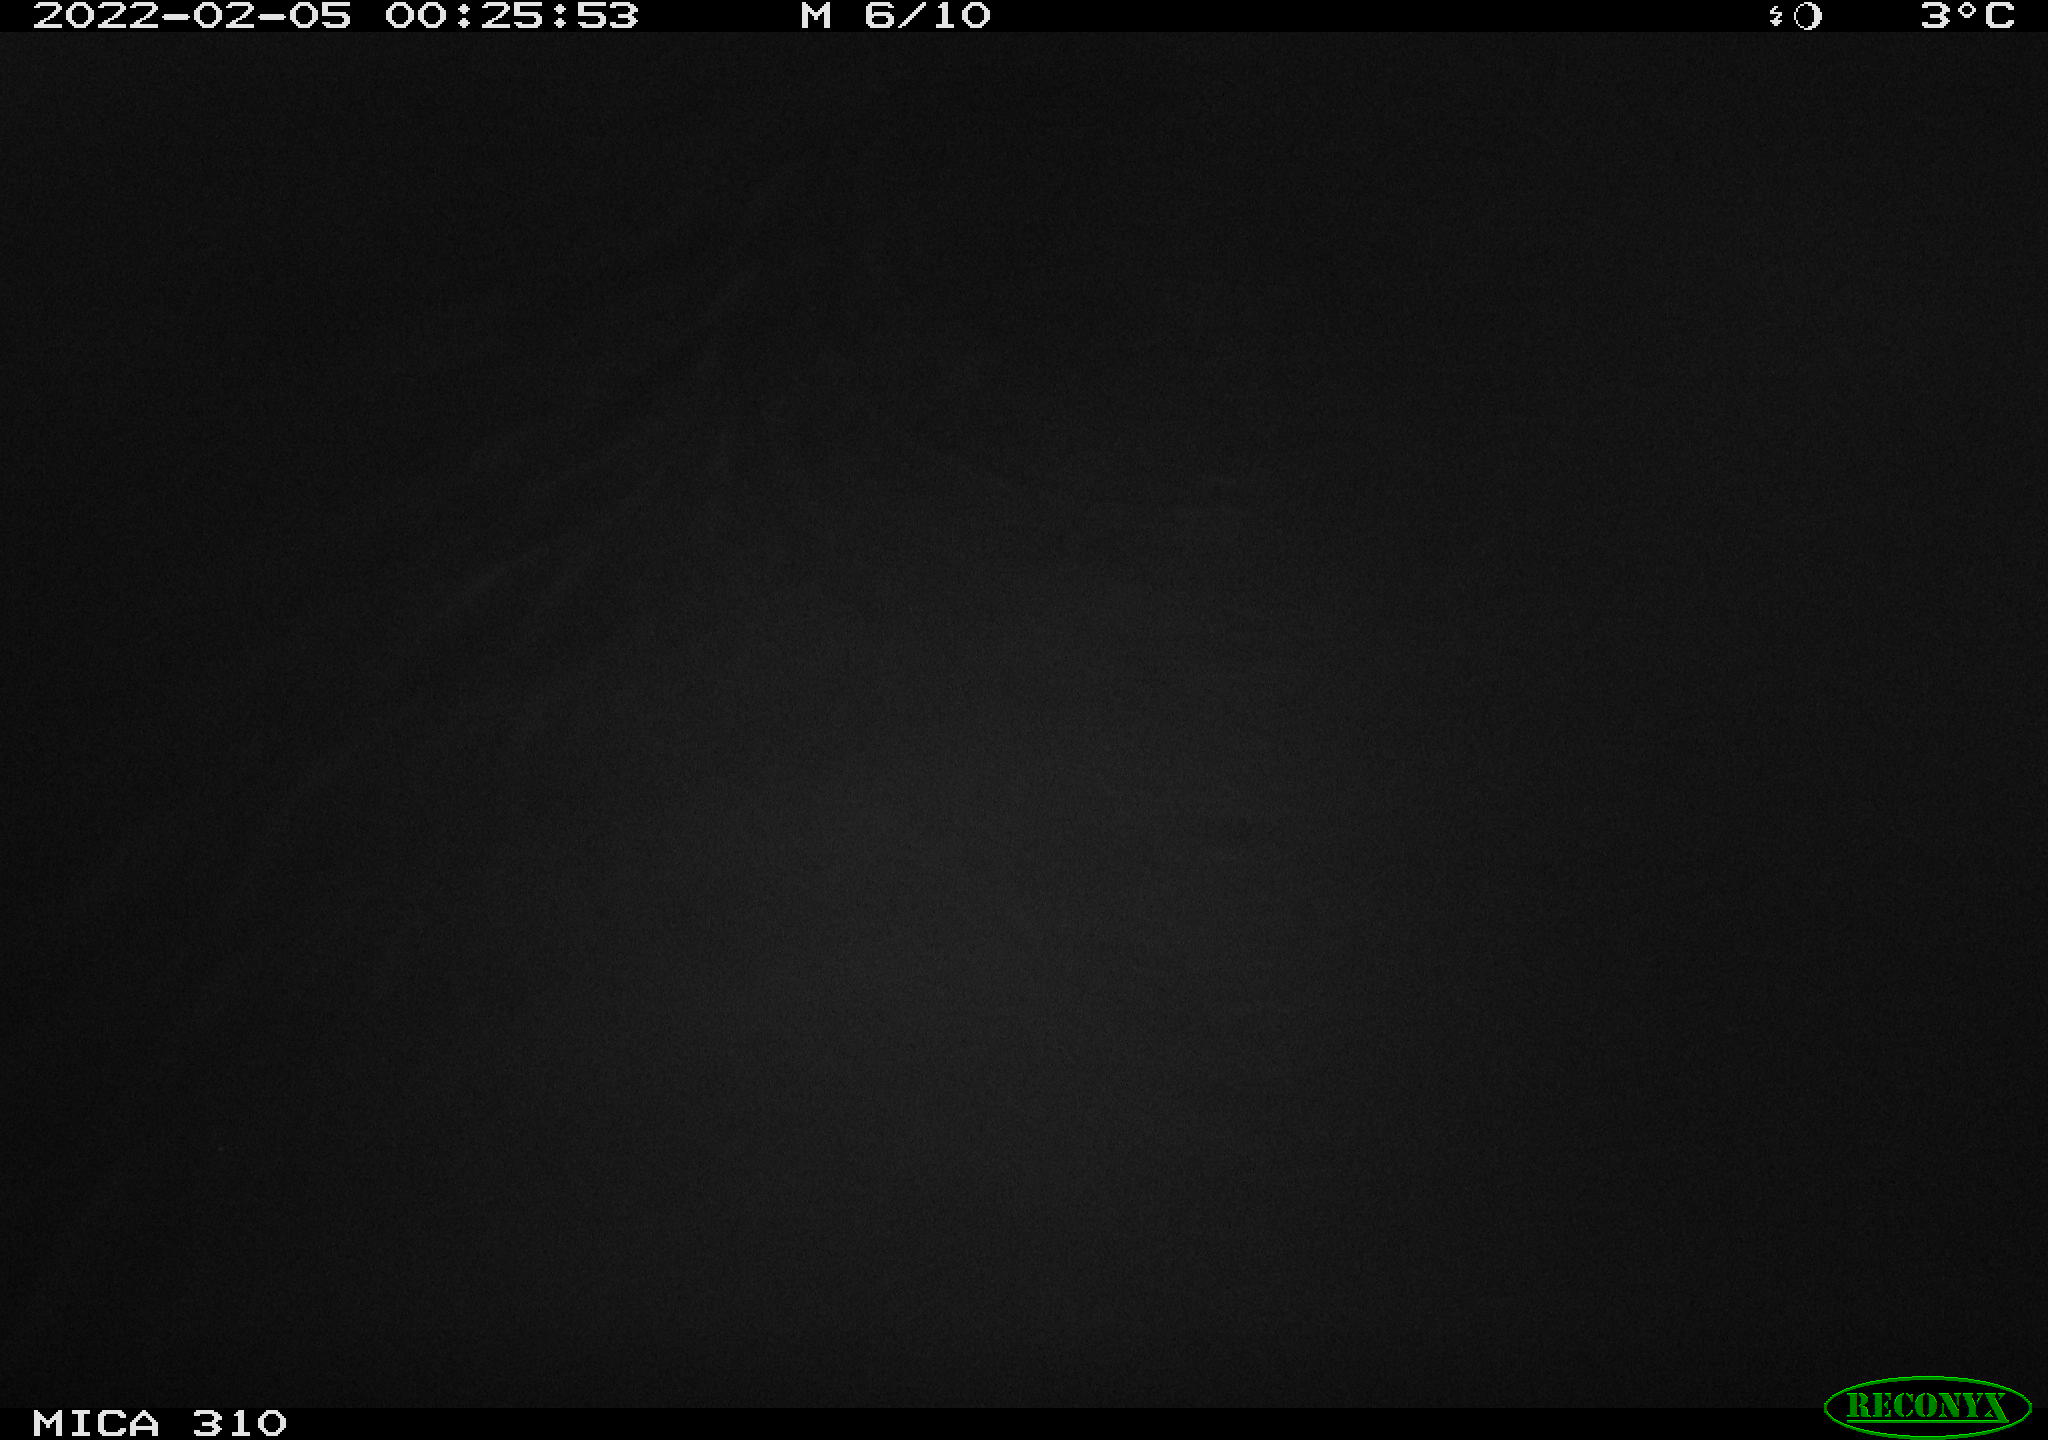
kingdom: Animalia
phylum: Chordata
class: Mammalia
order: Rodentia
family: Cricetidae
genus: Ondatra
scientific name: Ondatra zibethicus
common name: Muskrat
